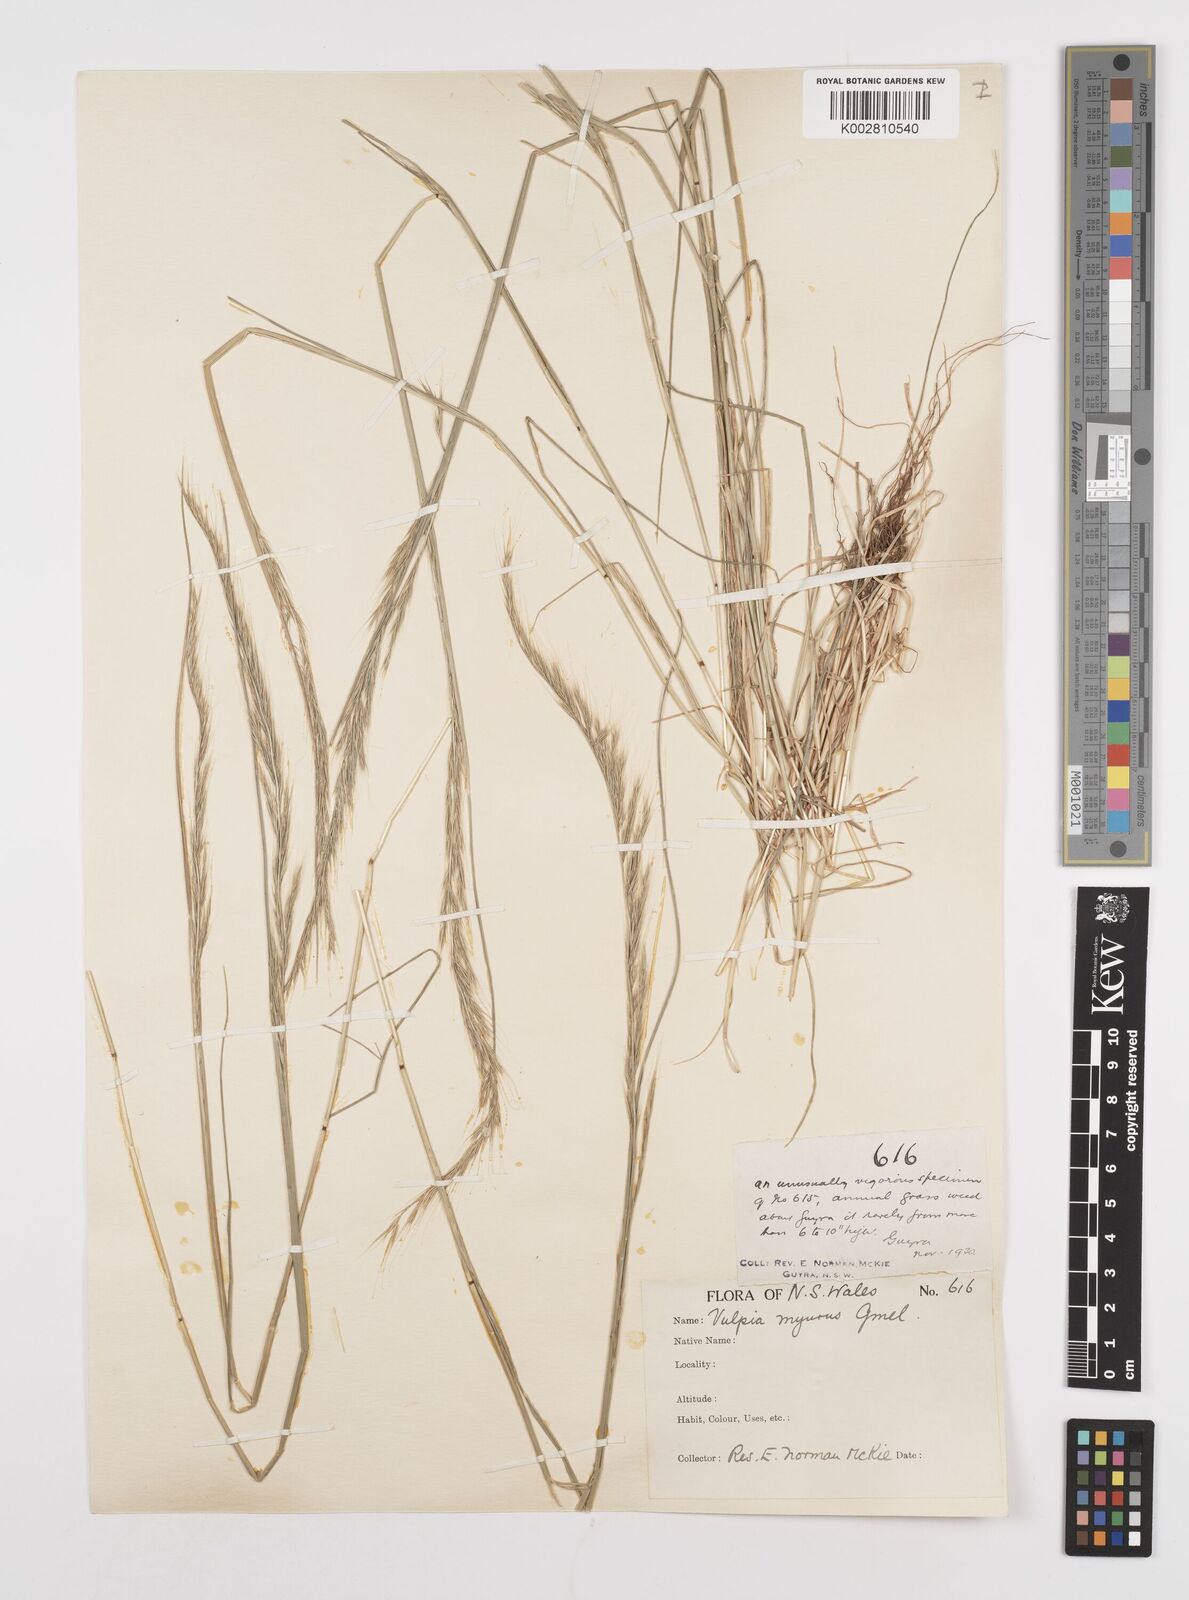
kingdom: Plantae
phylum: Tracheophyta
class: Liliopsida
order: Poales
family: Poaceae
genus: Festuca
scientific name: Festuca myuros
